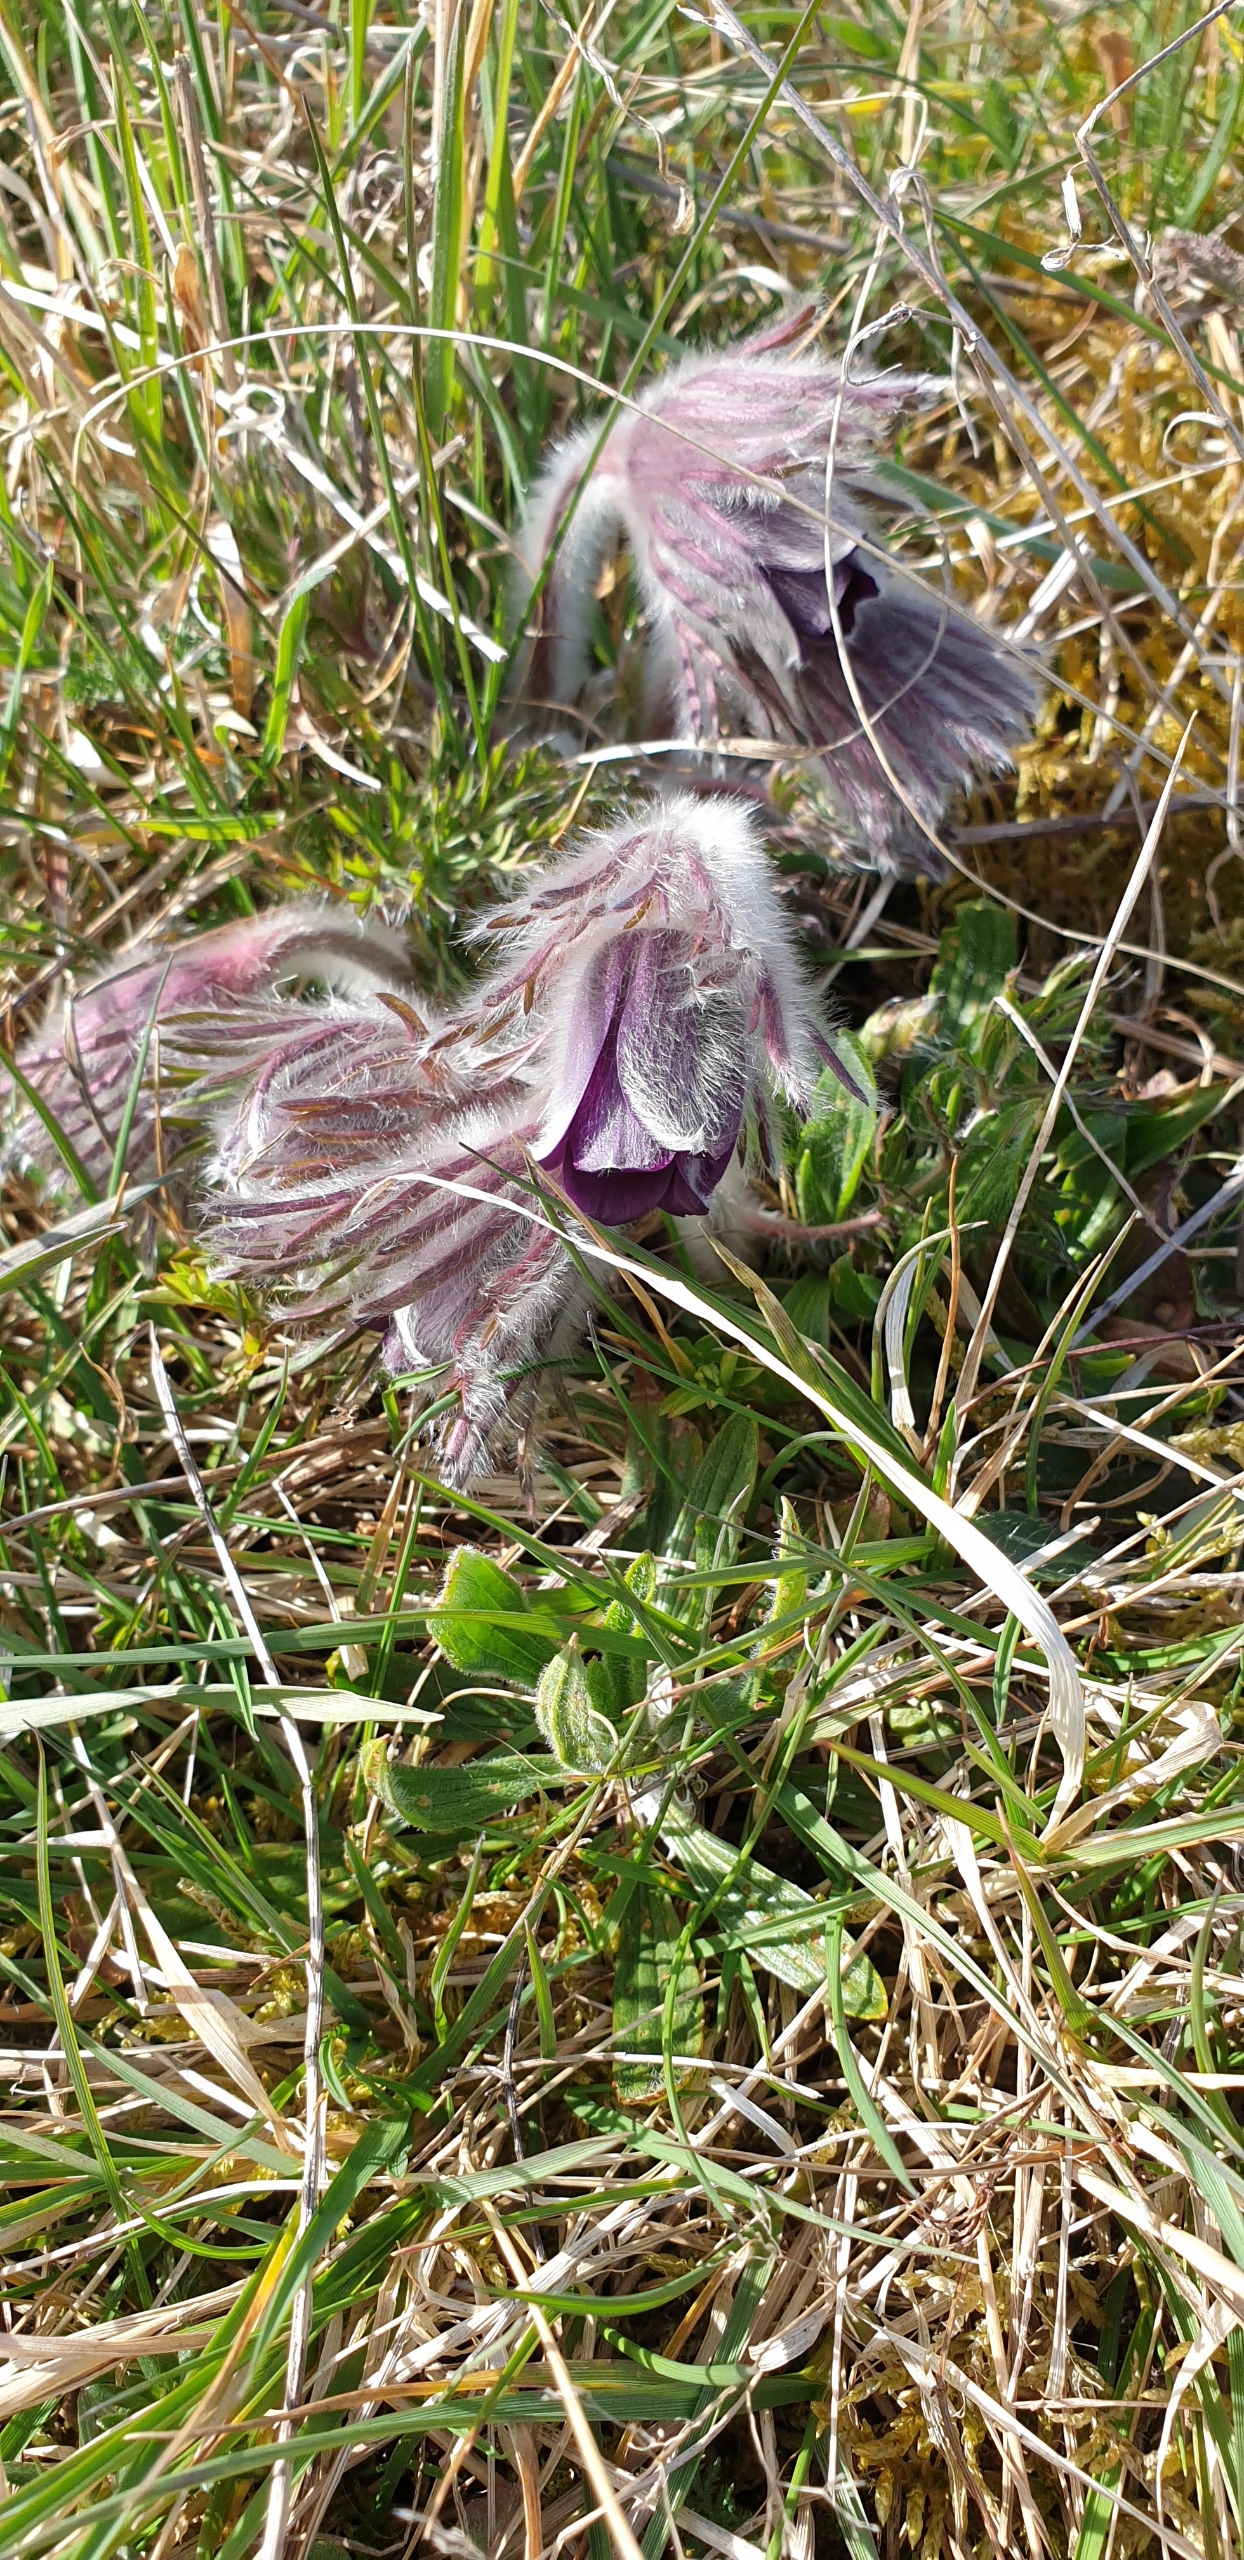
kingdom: Plantae
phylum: Tracheophyta
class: Magnoliopsida
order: Ranunculales
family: Ranunculaceae
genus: Pulsatilla
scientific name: Pulsatilla pratensis
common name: Nikkende kobjælde
